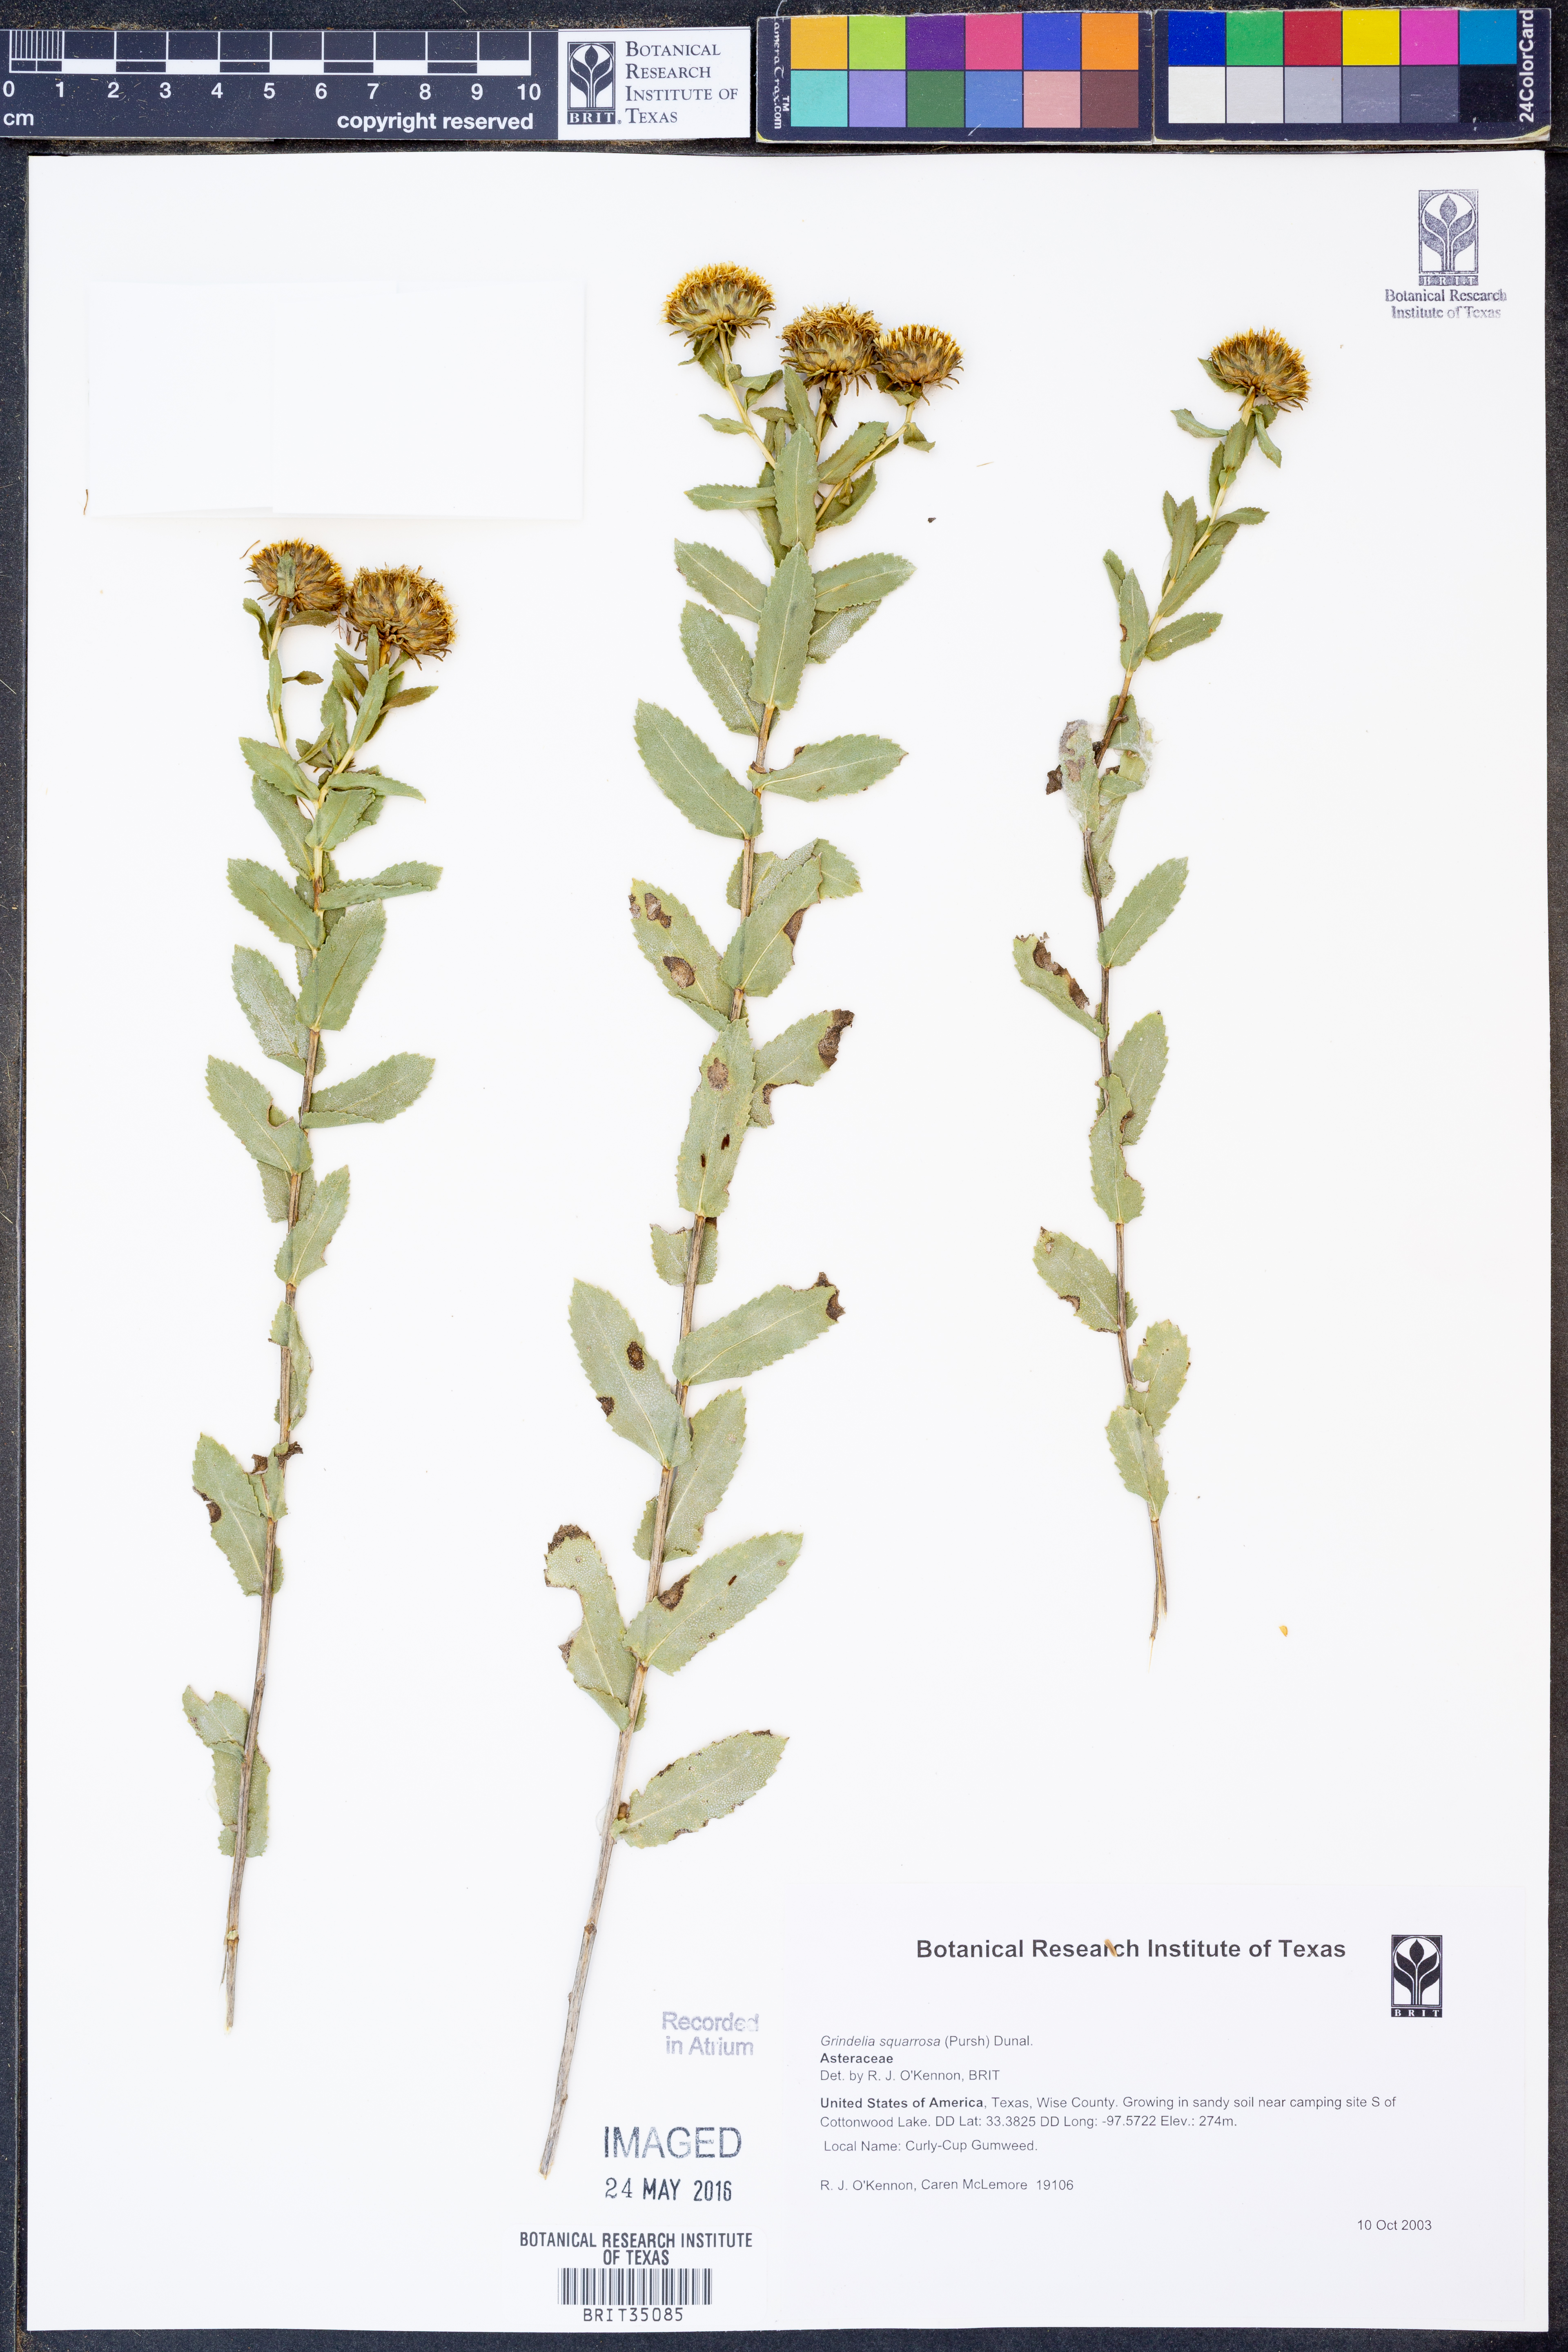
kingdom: Plantae
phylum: Tracheophyta
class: Magnoliopsida
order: Asterales
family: Asteraceae
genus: Grindelia
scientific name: Grindelia squarrosa
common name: Curly-cup gumweed
